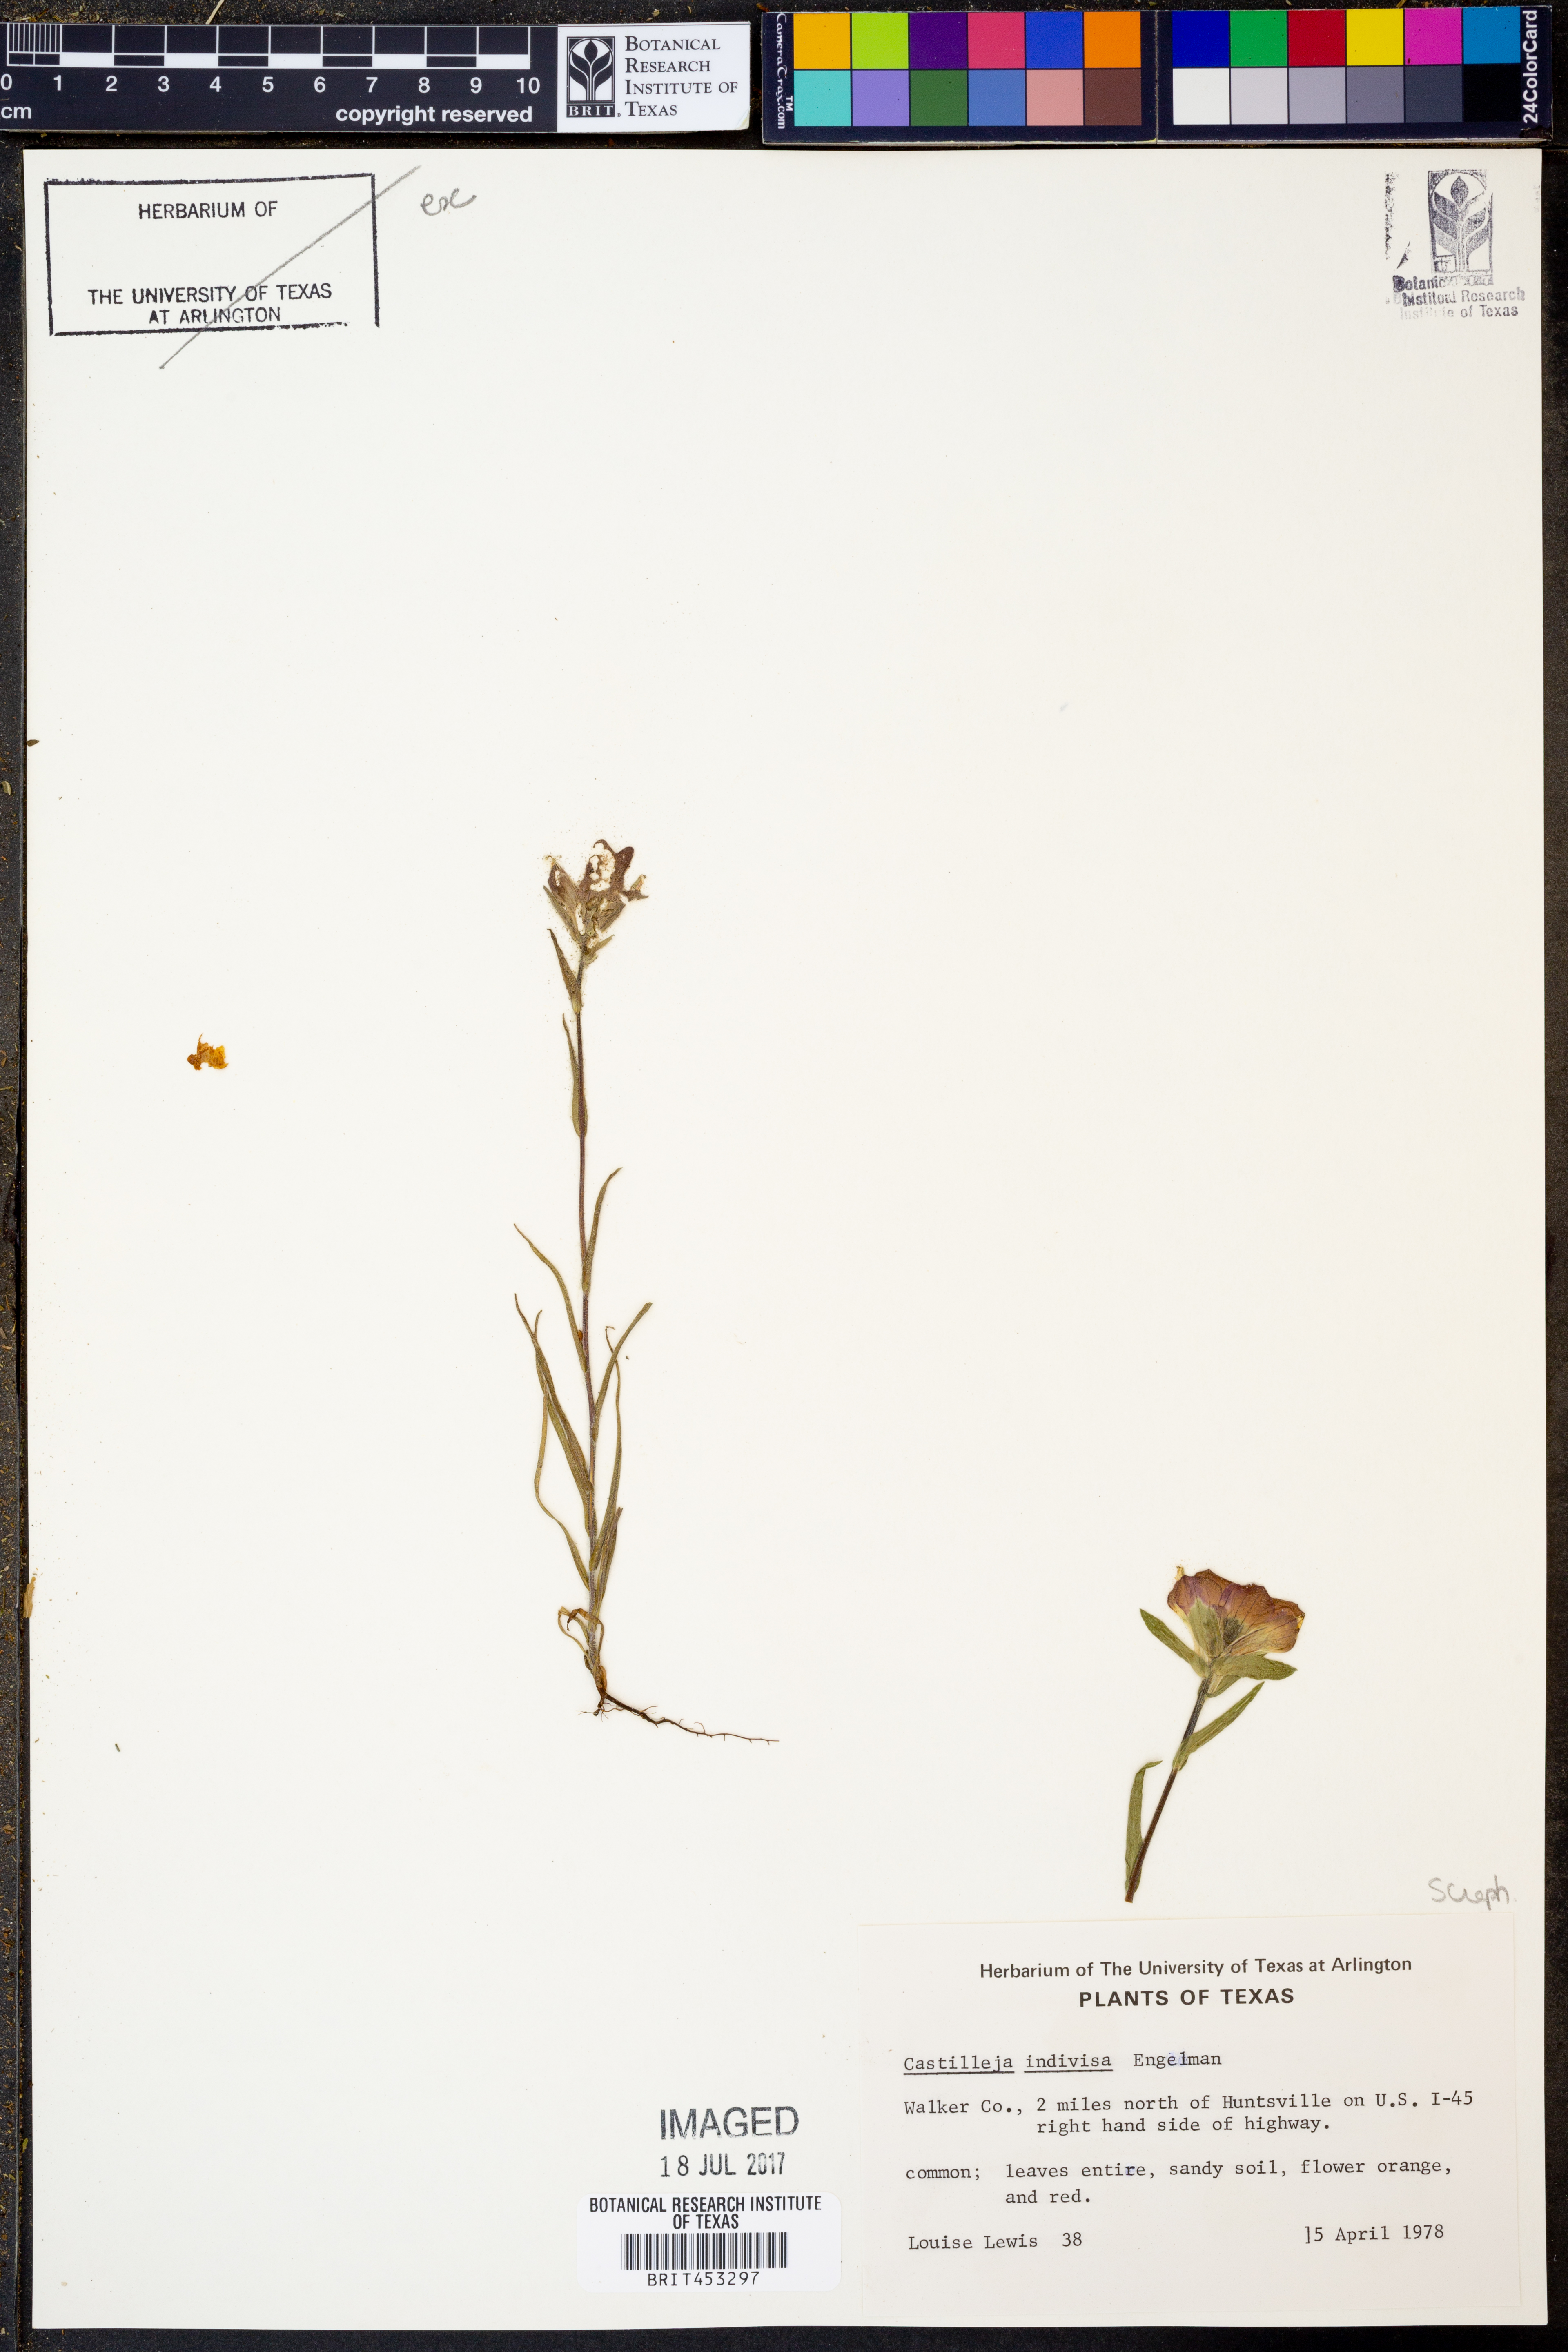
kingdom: Plantae
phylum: Tracheophyta
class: Magnoliopsida
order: Lamiales
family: Orobanchaceae
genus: Castilleja
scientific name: Castilleja indivisa
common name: Texas paintbrush
